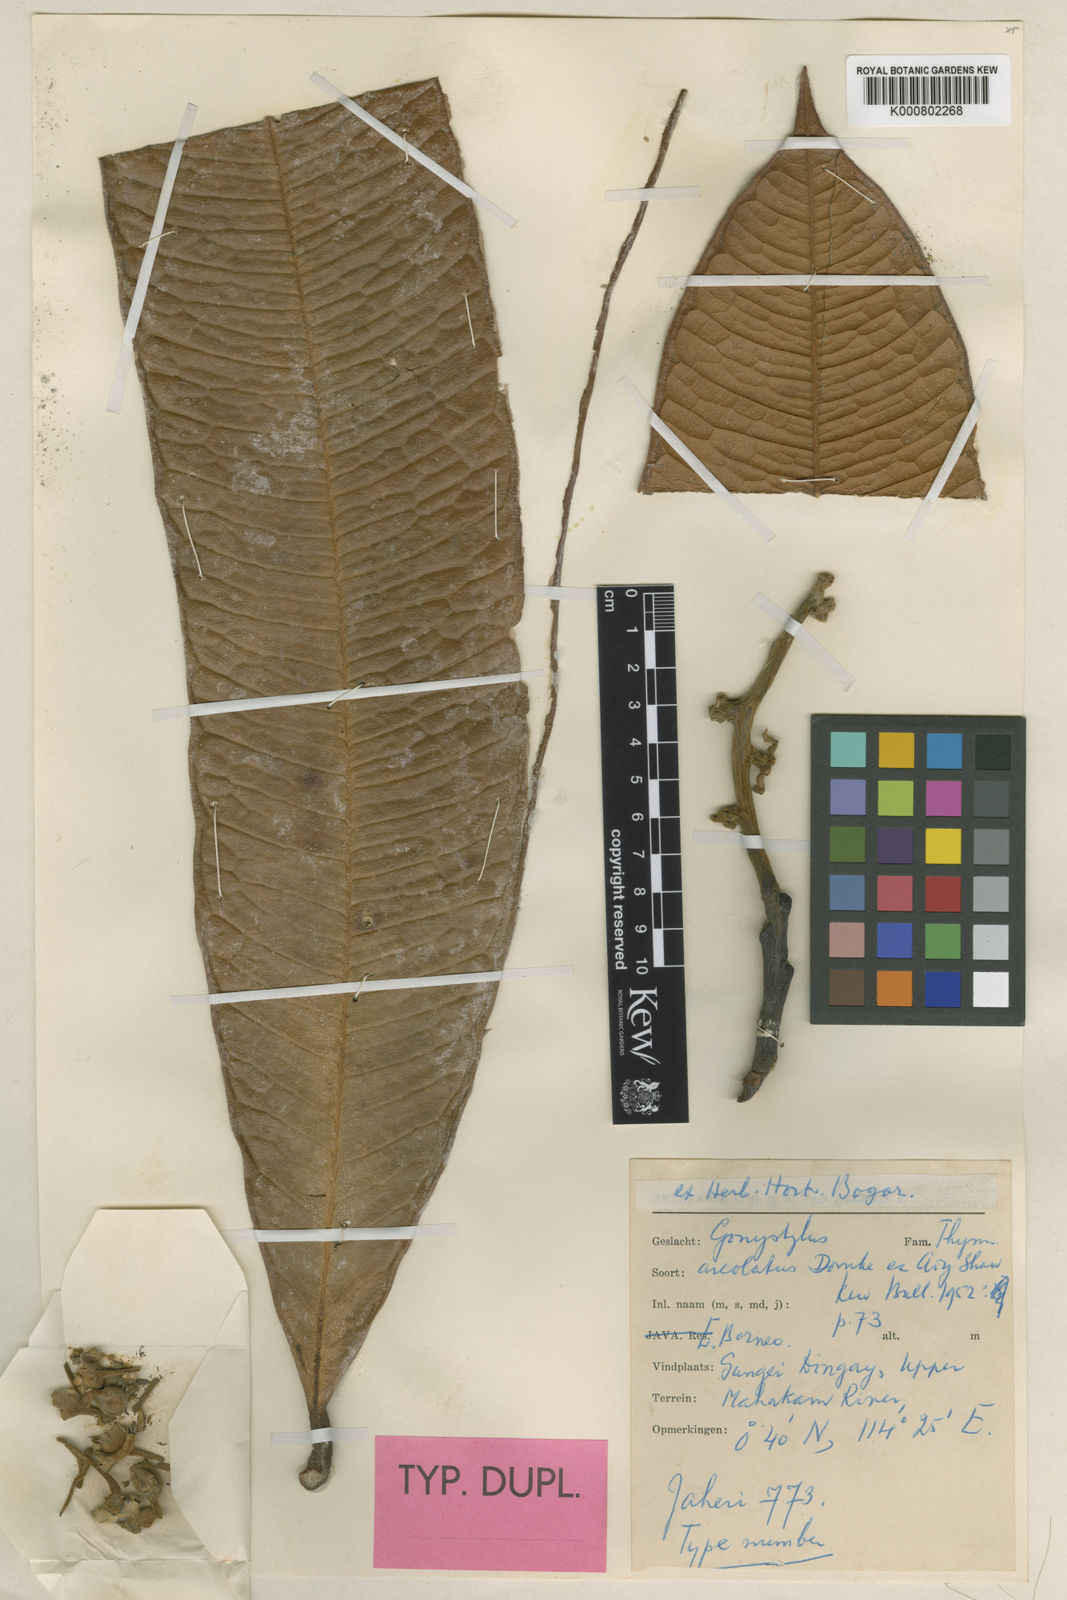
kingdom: Plantae
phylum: Tracheophyta
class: Magnoliopsida
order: Malvales
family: Thymelaeaceae
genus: Gonystylus
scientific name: Gonystylus areolatus
